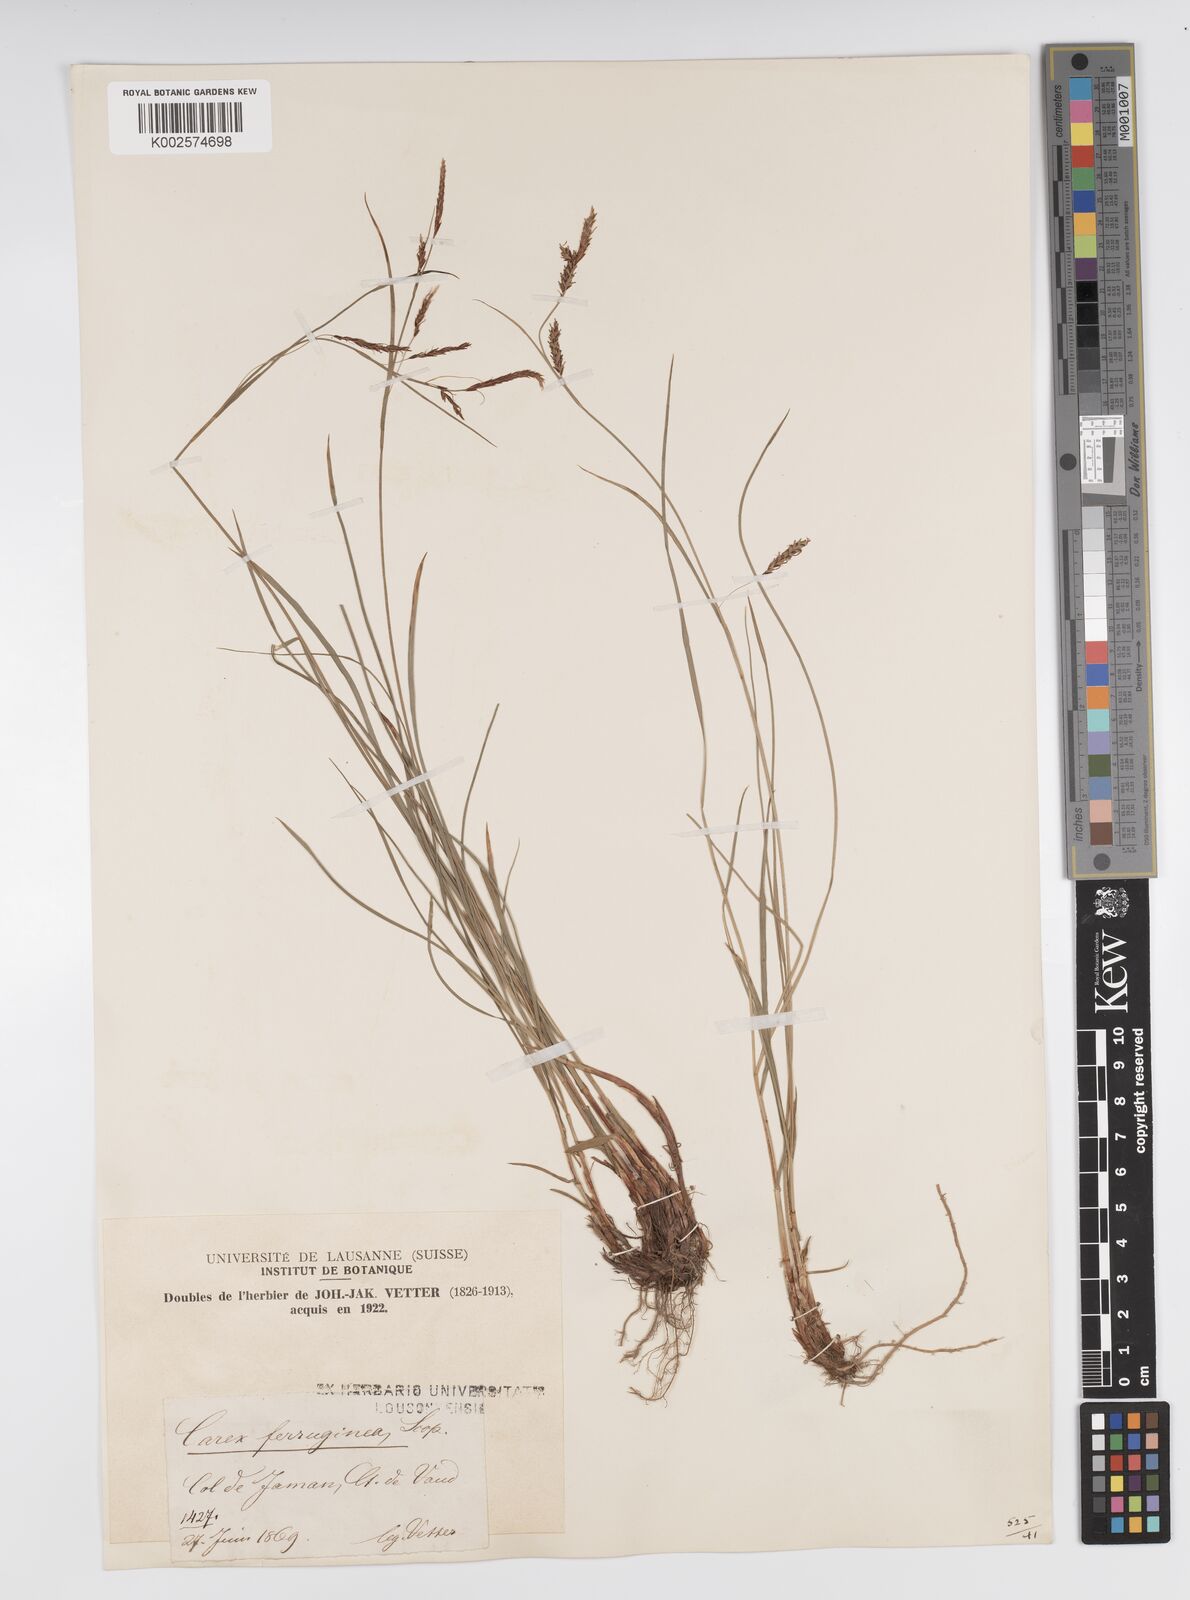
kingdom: Plantae
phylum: Tracheophyta
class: Liliopsida
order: Poales
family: Cyperaceae
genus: Carex
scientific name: Carex ferruginea
